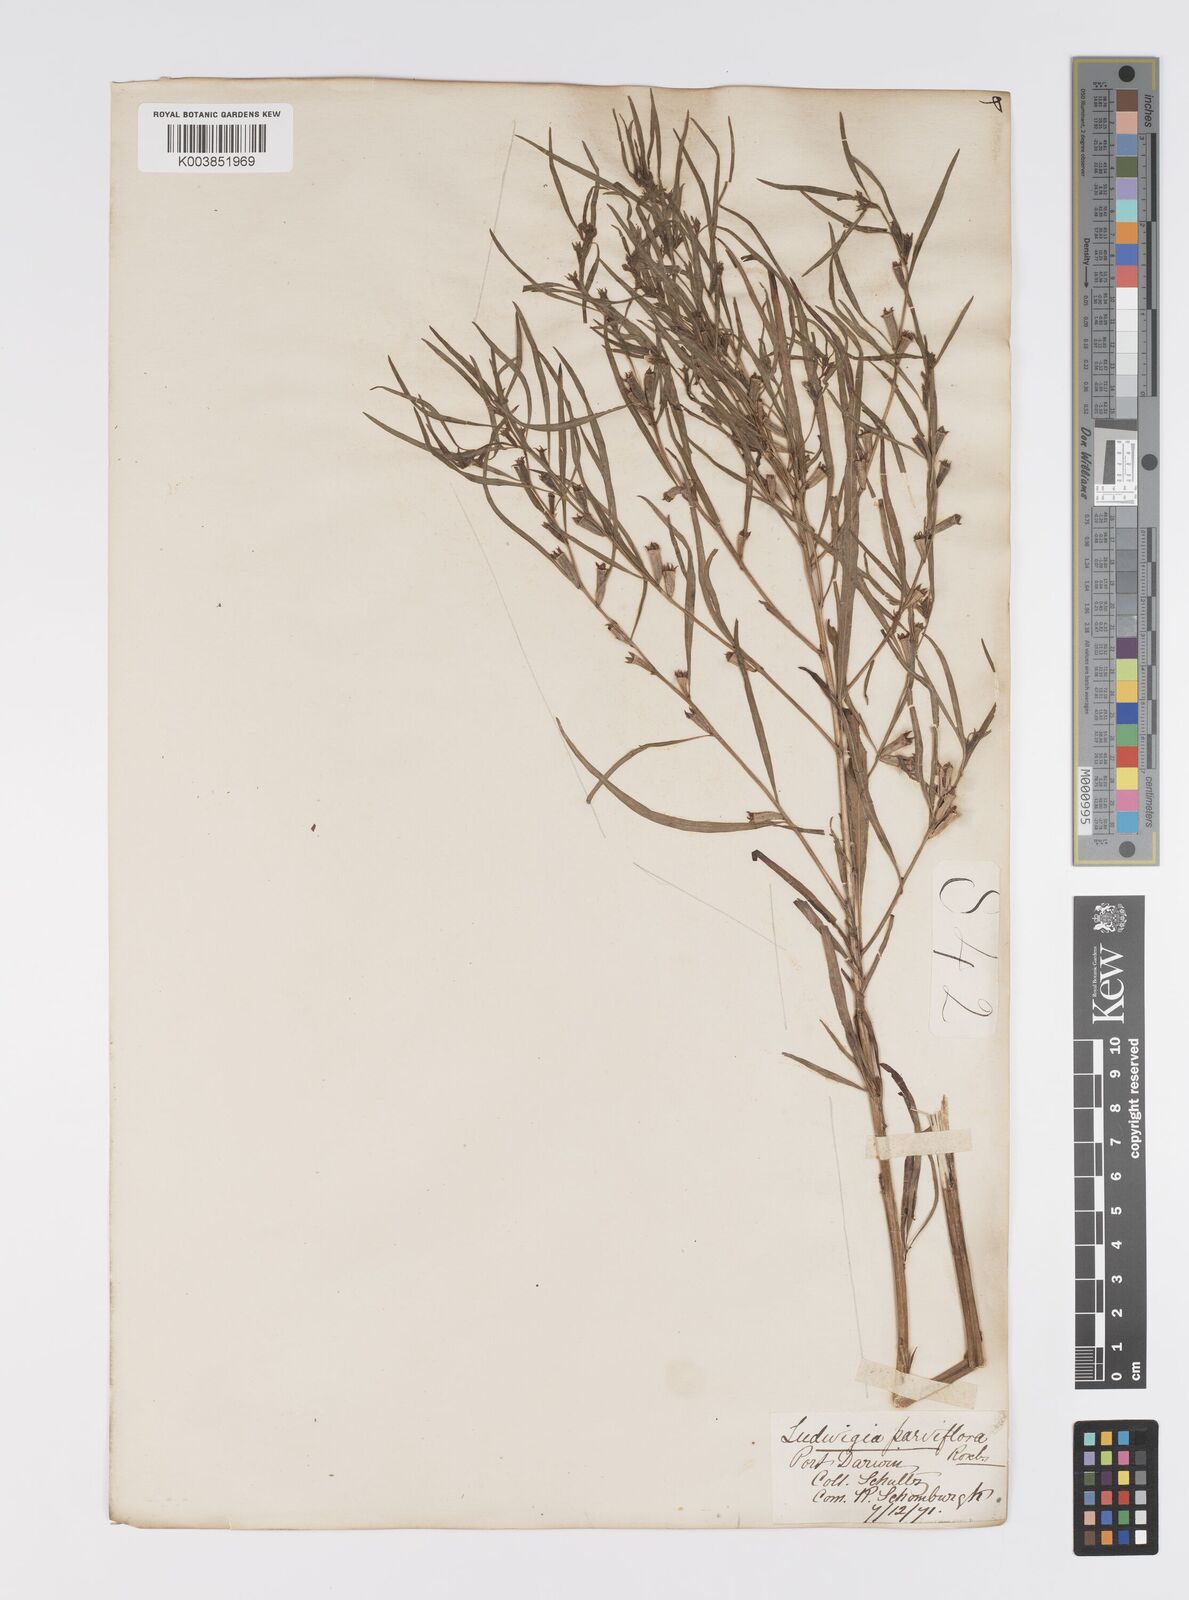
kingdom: Plantae
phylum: Tracheophyta
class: Magnoliopsida
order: Myrtales
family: Onagraceae
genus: Ludwigia
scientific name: Ludwigia perennis
